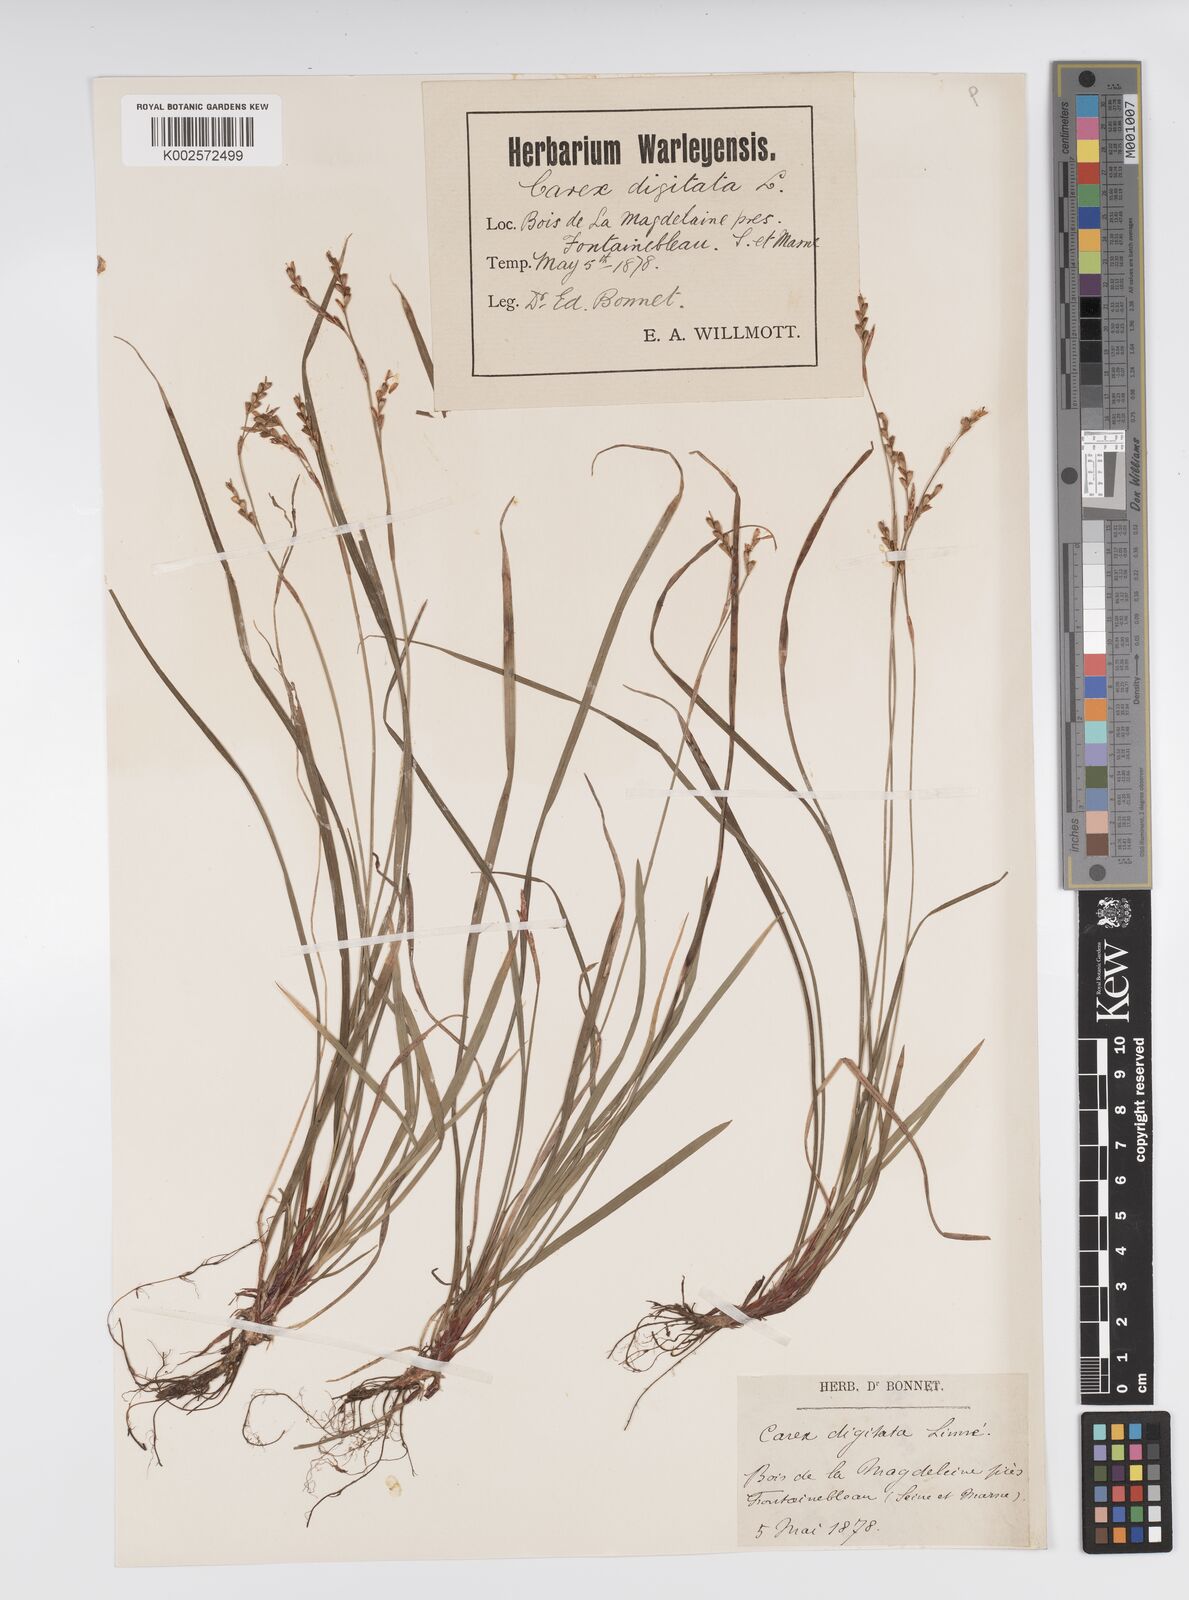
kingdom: Plantae
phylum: Tracheophyta
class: Liliopsida
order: Poales
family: Cyperaceae
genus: Carex
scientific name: Carex digitata
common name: Fingered sedge
